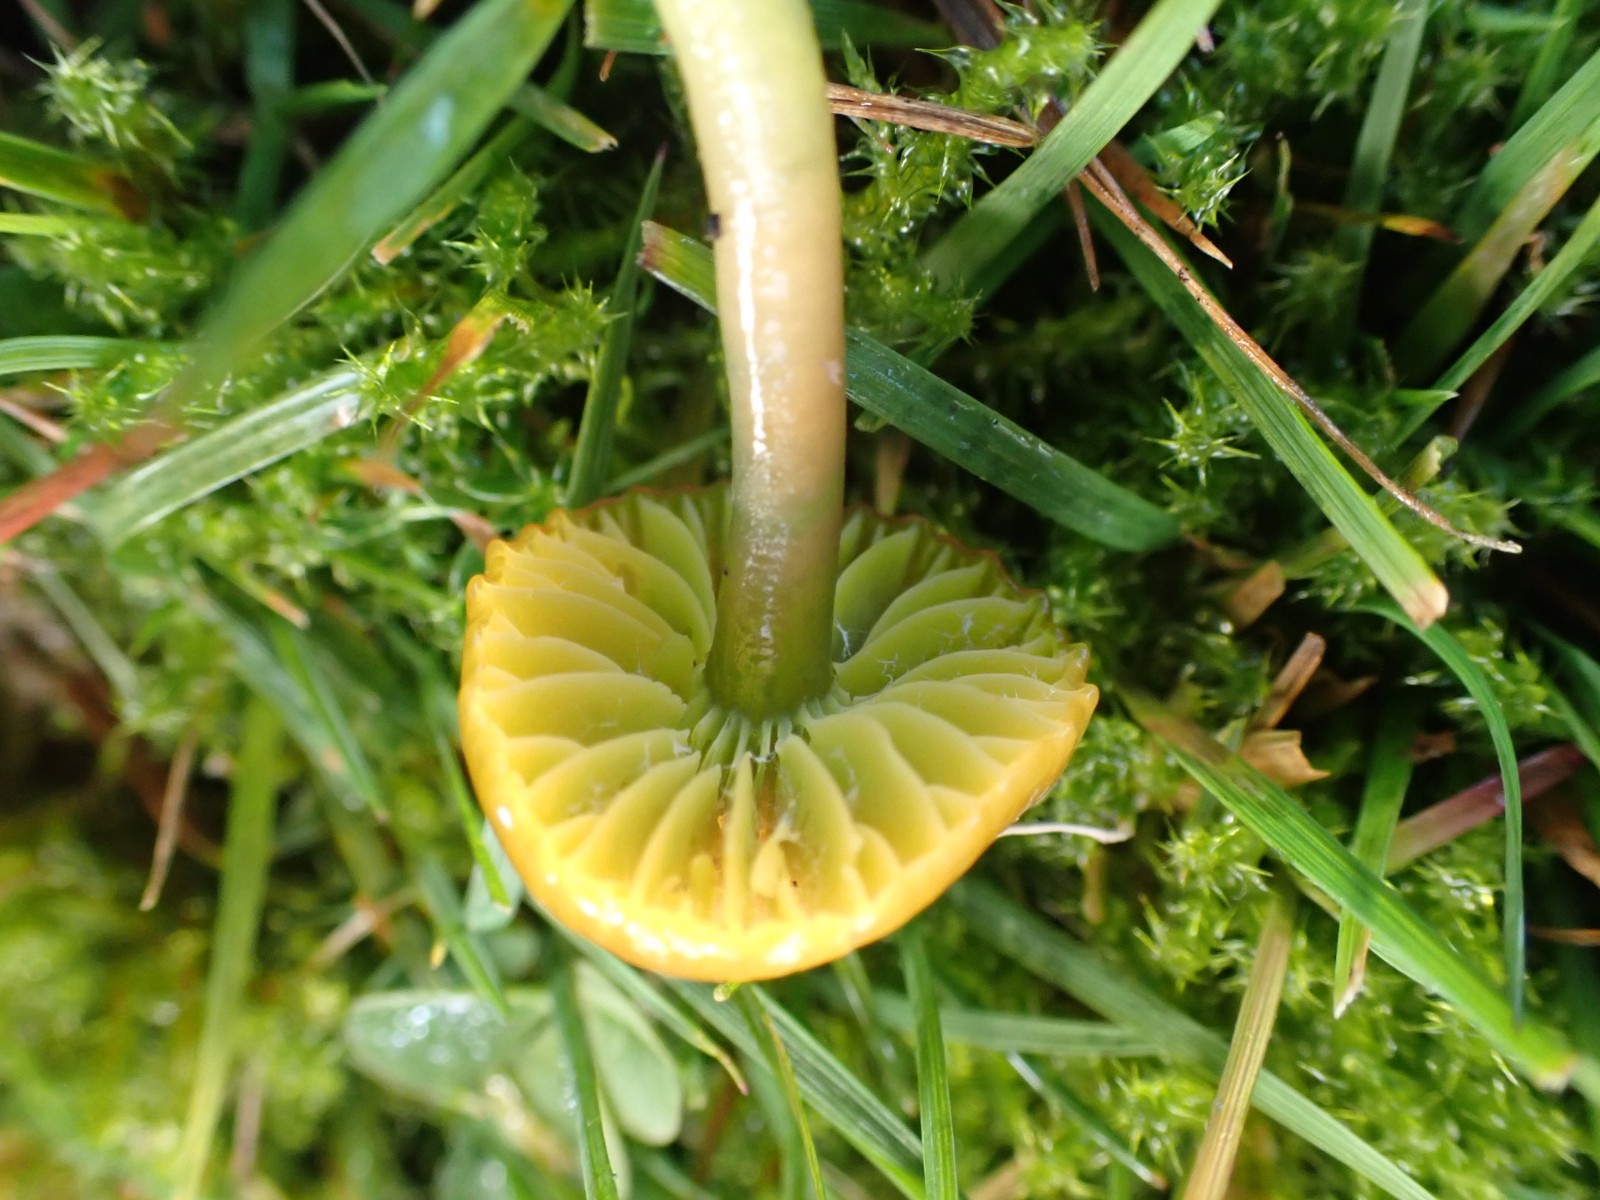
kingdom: Fungi
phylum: Basidiomycota
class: Agaricomycetes
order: Agaricales
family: Hygrophoraceae
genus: Gliophorus
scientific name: Gliophorus psittacinus
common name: papegøje-vokshat
